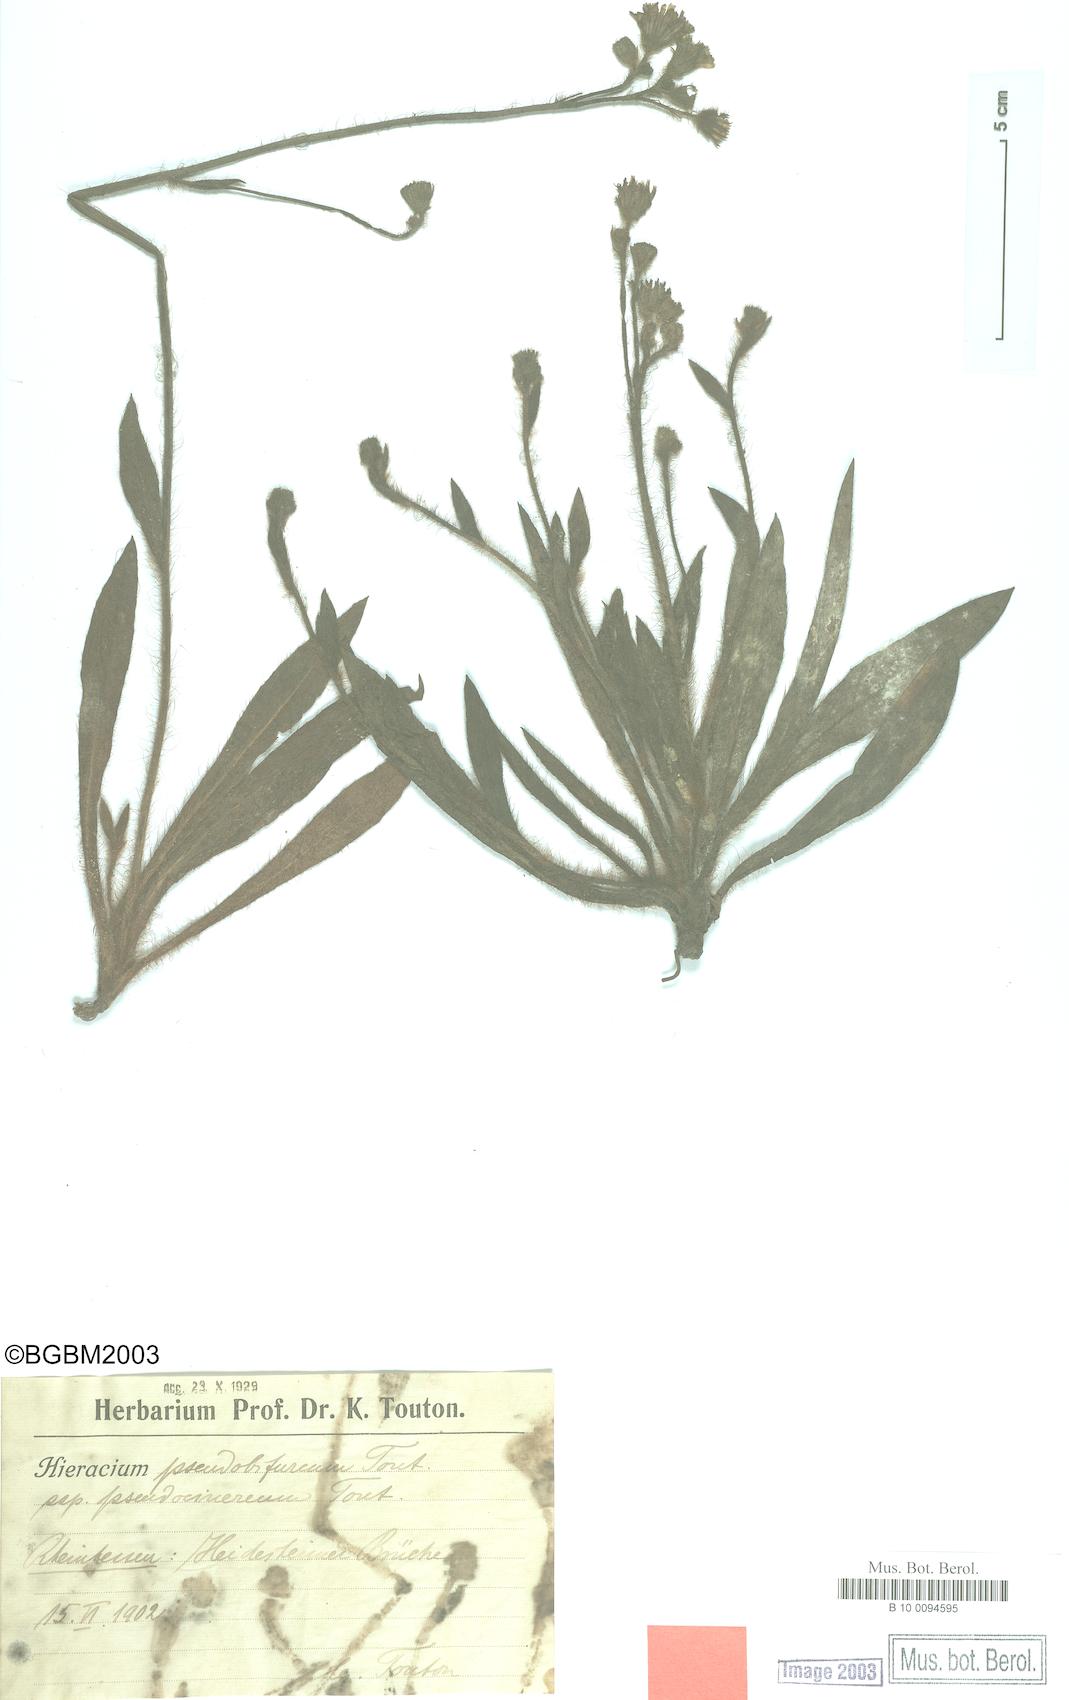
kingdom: Plantae
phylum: Tracheophyta
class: Magnoliopsida
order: Asterales
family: Asteraceae
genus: Pilosella
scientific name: Pilosella cinereiformis
